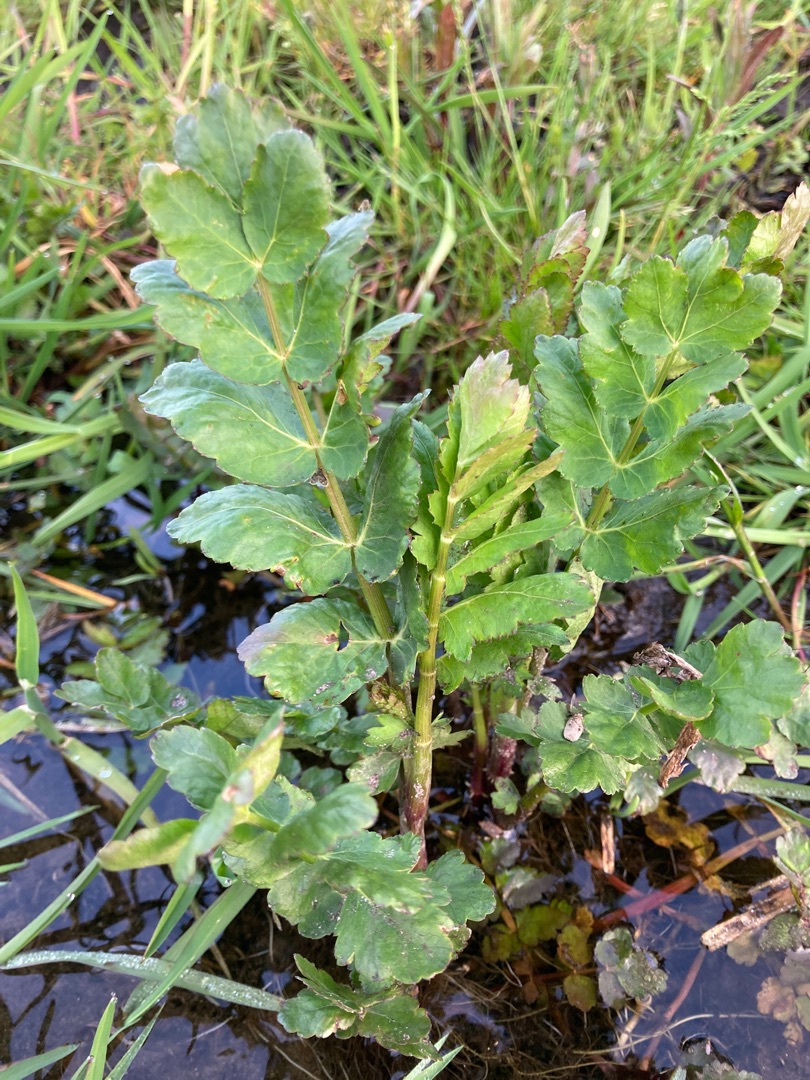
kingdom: Plantae
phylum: Tracheophyta
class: Magnoliopsida
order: Apiales
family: Apiaceae
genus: Berula
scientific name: Berula erecta
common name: Sideskærm
